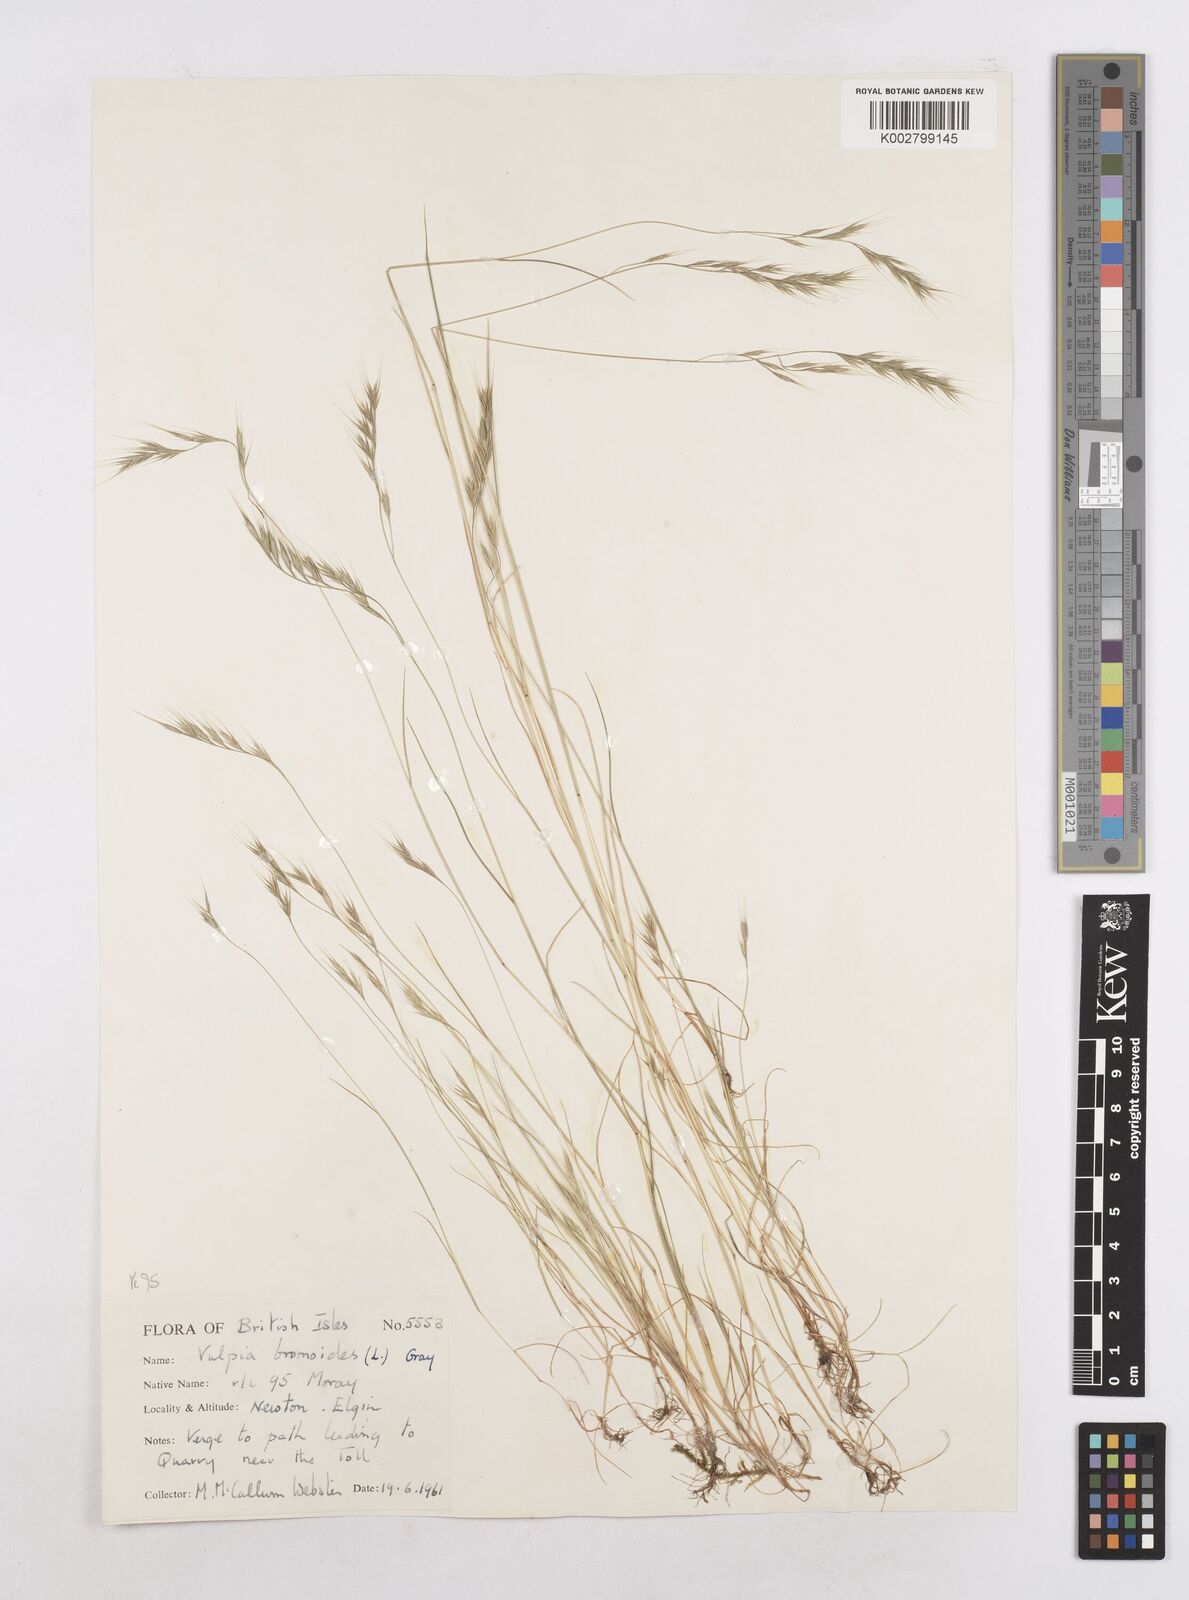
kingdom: Plantae
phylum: Tracheophyta
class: Liliopsida
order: Poales
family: Poaceae
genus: Festuca
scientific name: Festuca bromoides
